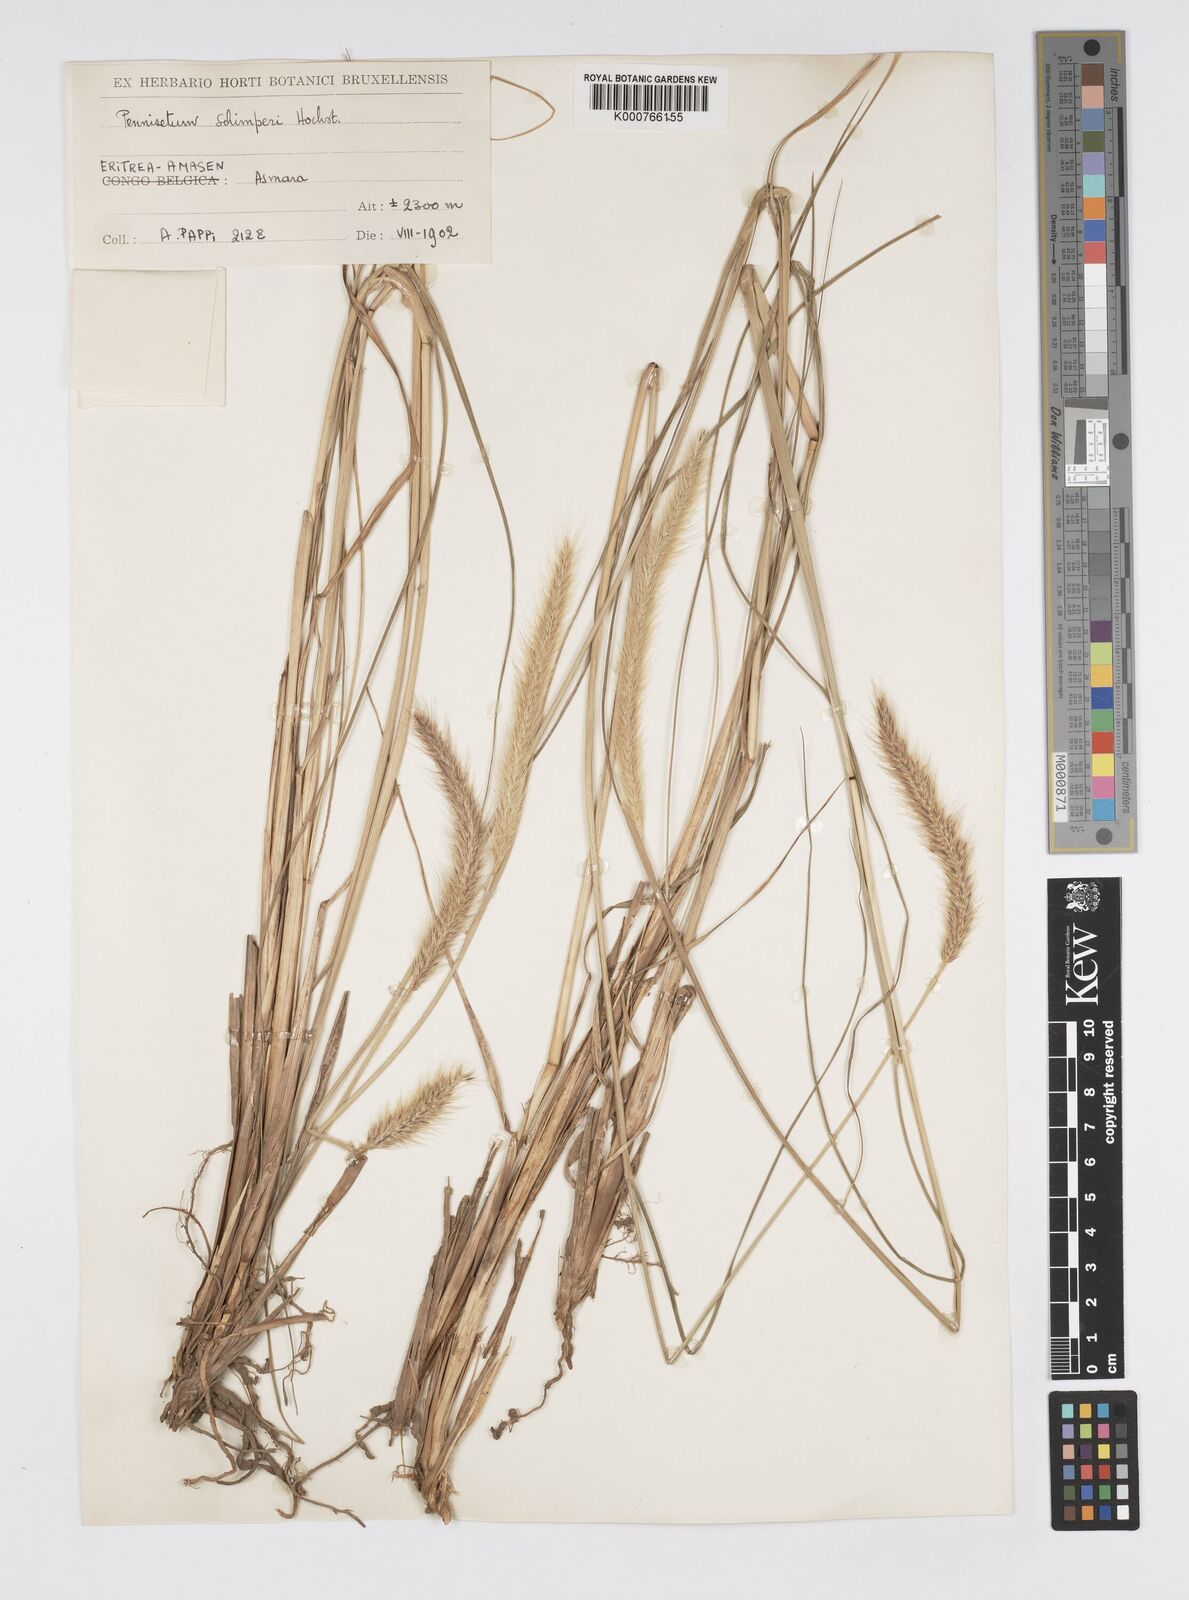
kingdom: Plantae
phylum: Tracheophyta
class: Liliopsida
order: Poales
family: Poaceae
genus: Cenchrus
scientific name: Cenchrus sphacelatus
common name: Bulgras
